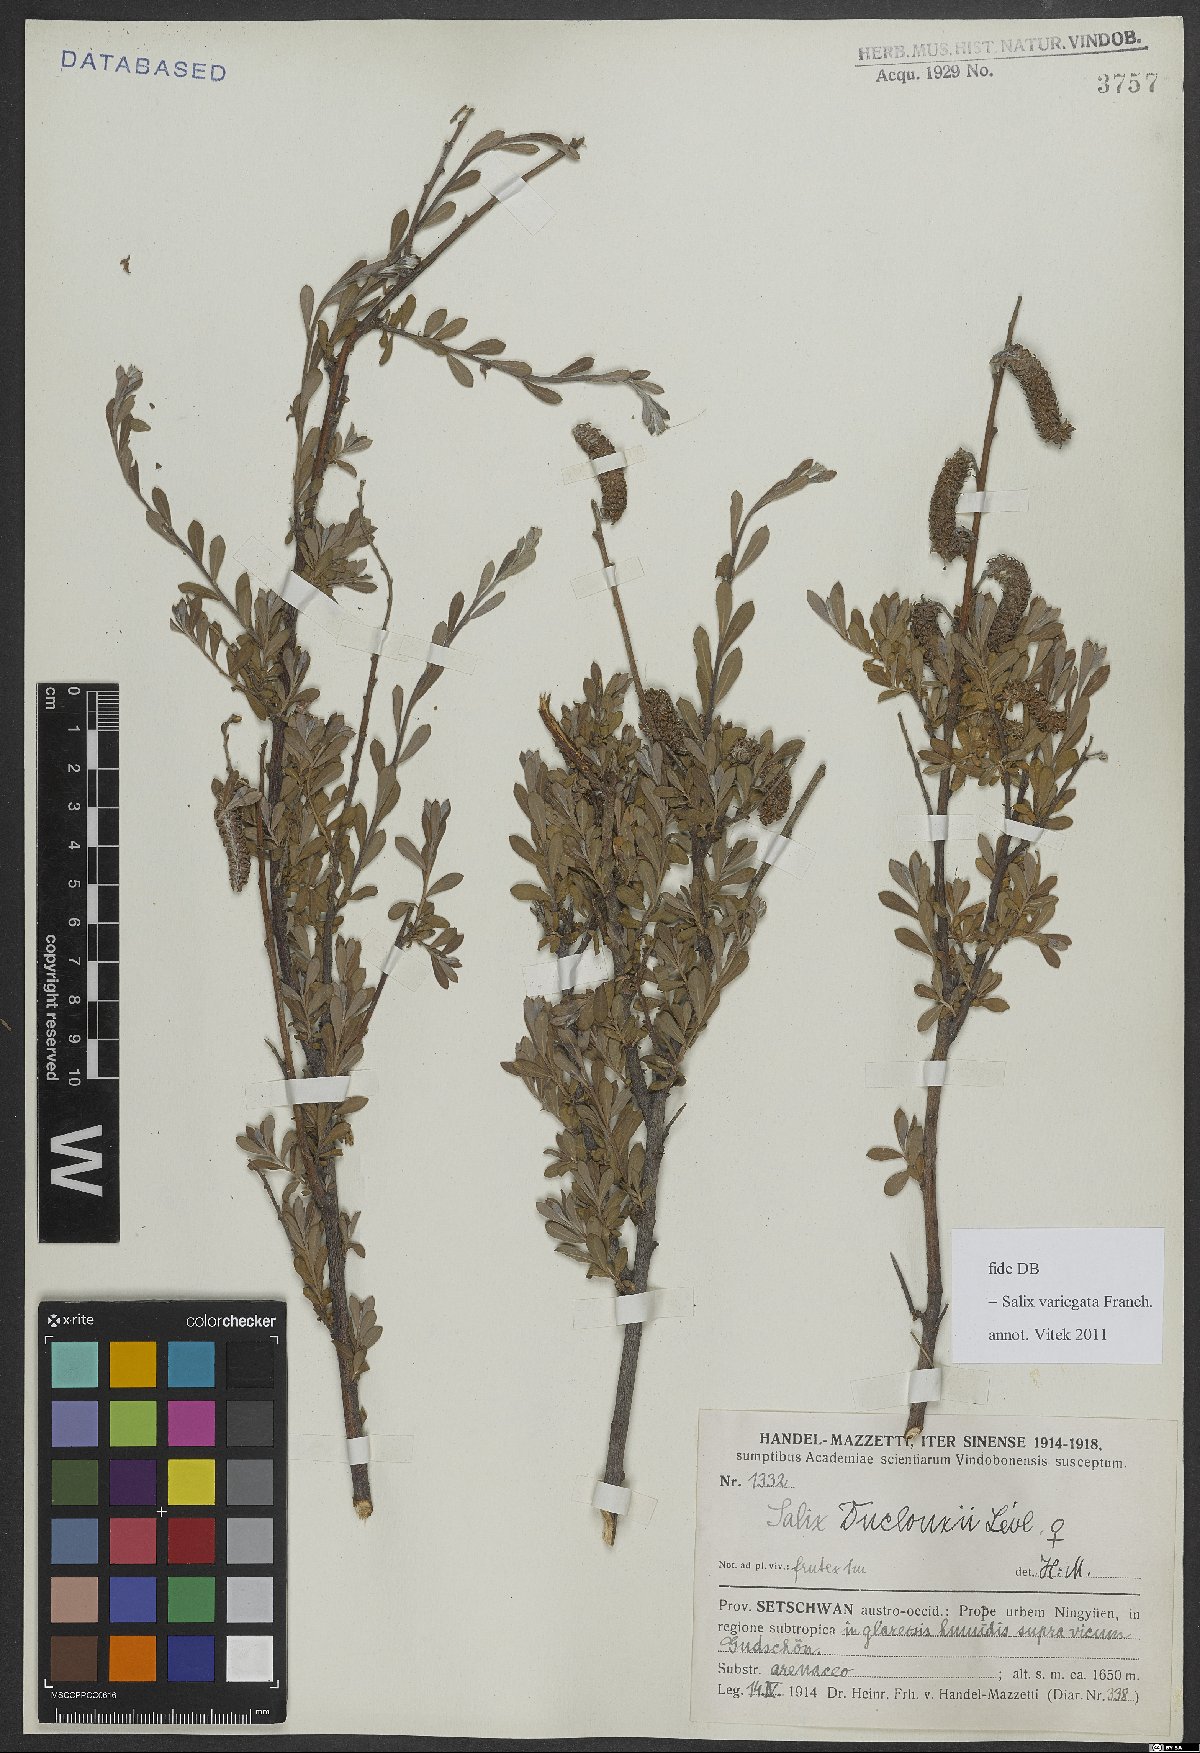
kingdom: Plantae
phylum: Tracheophyta
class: Magnoliopsida
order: Malpighiales
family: Salicaceae
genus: Salix
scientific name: Salix variegata
